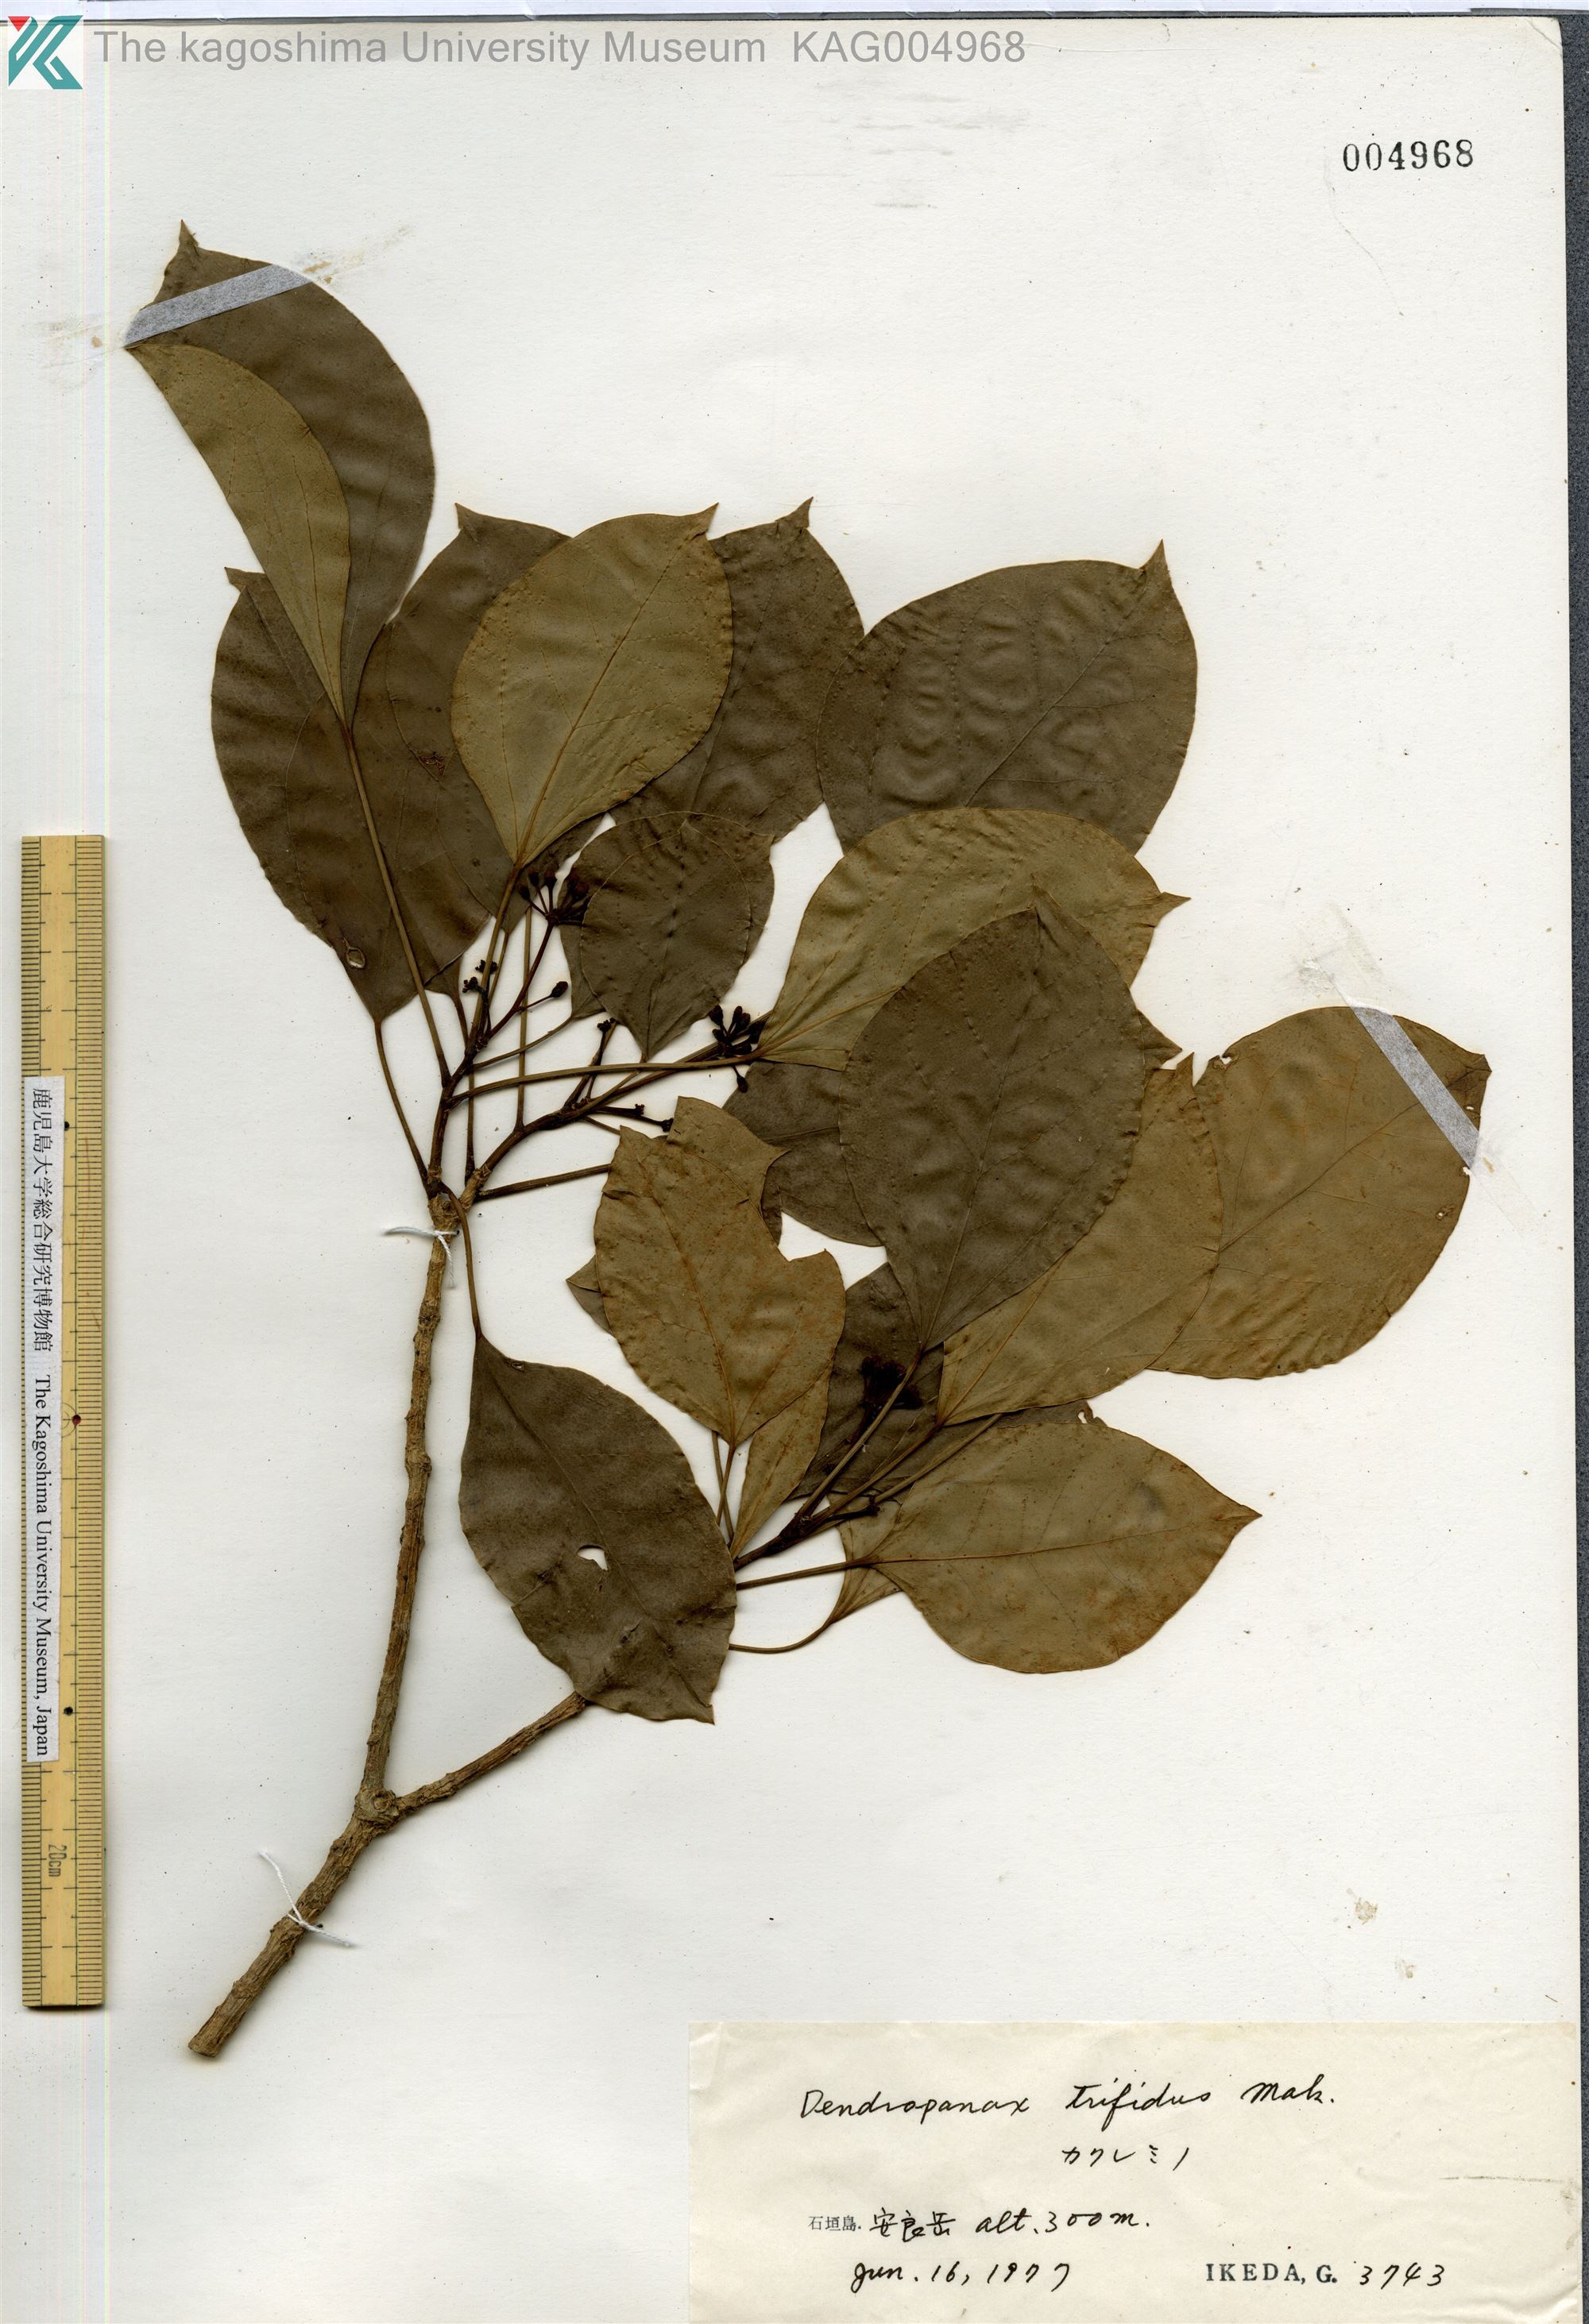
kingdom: Plantae
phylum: Tracheophyta
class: Magnoliopsida
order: Apiales
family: Araliaceae
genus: Dendropanax
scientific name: Dendropanax trifidus
